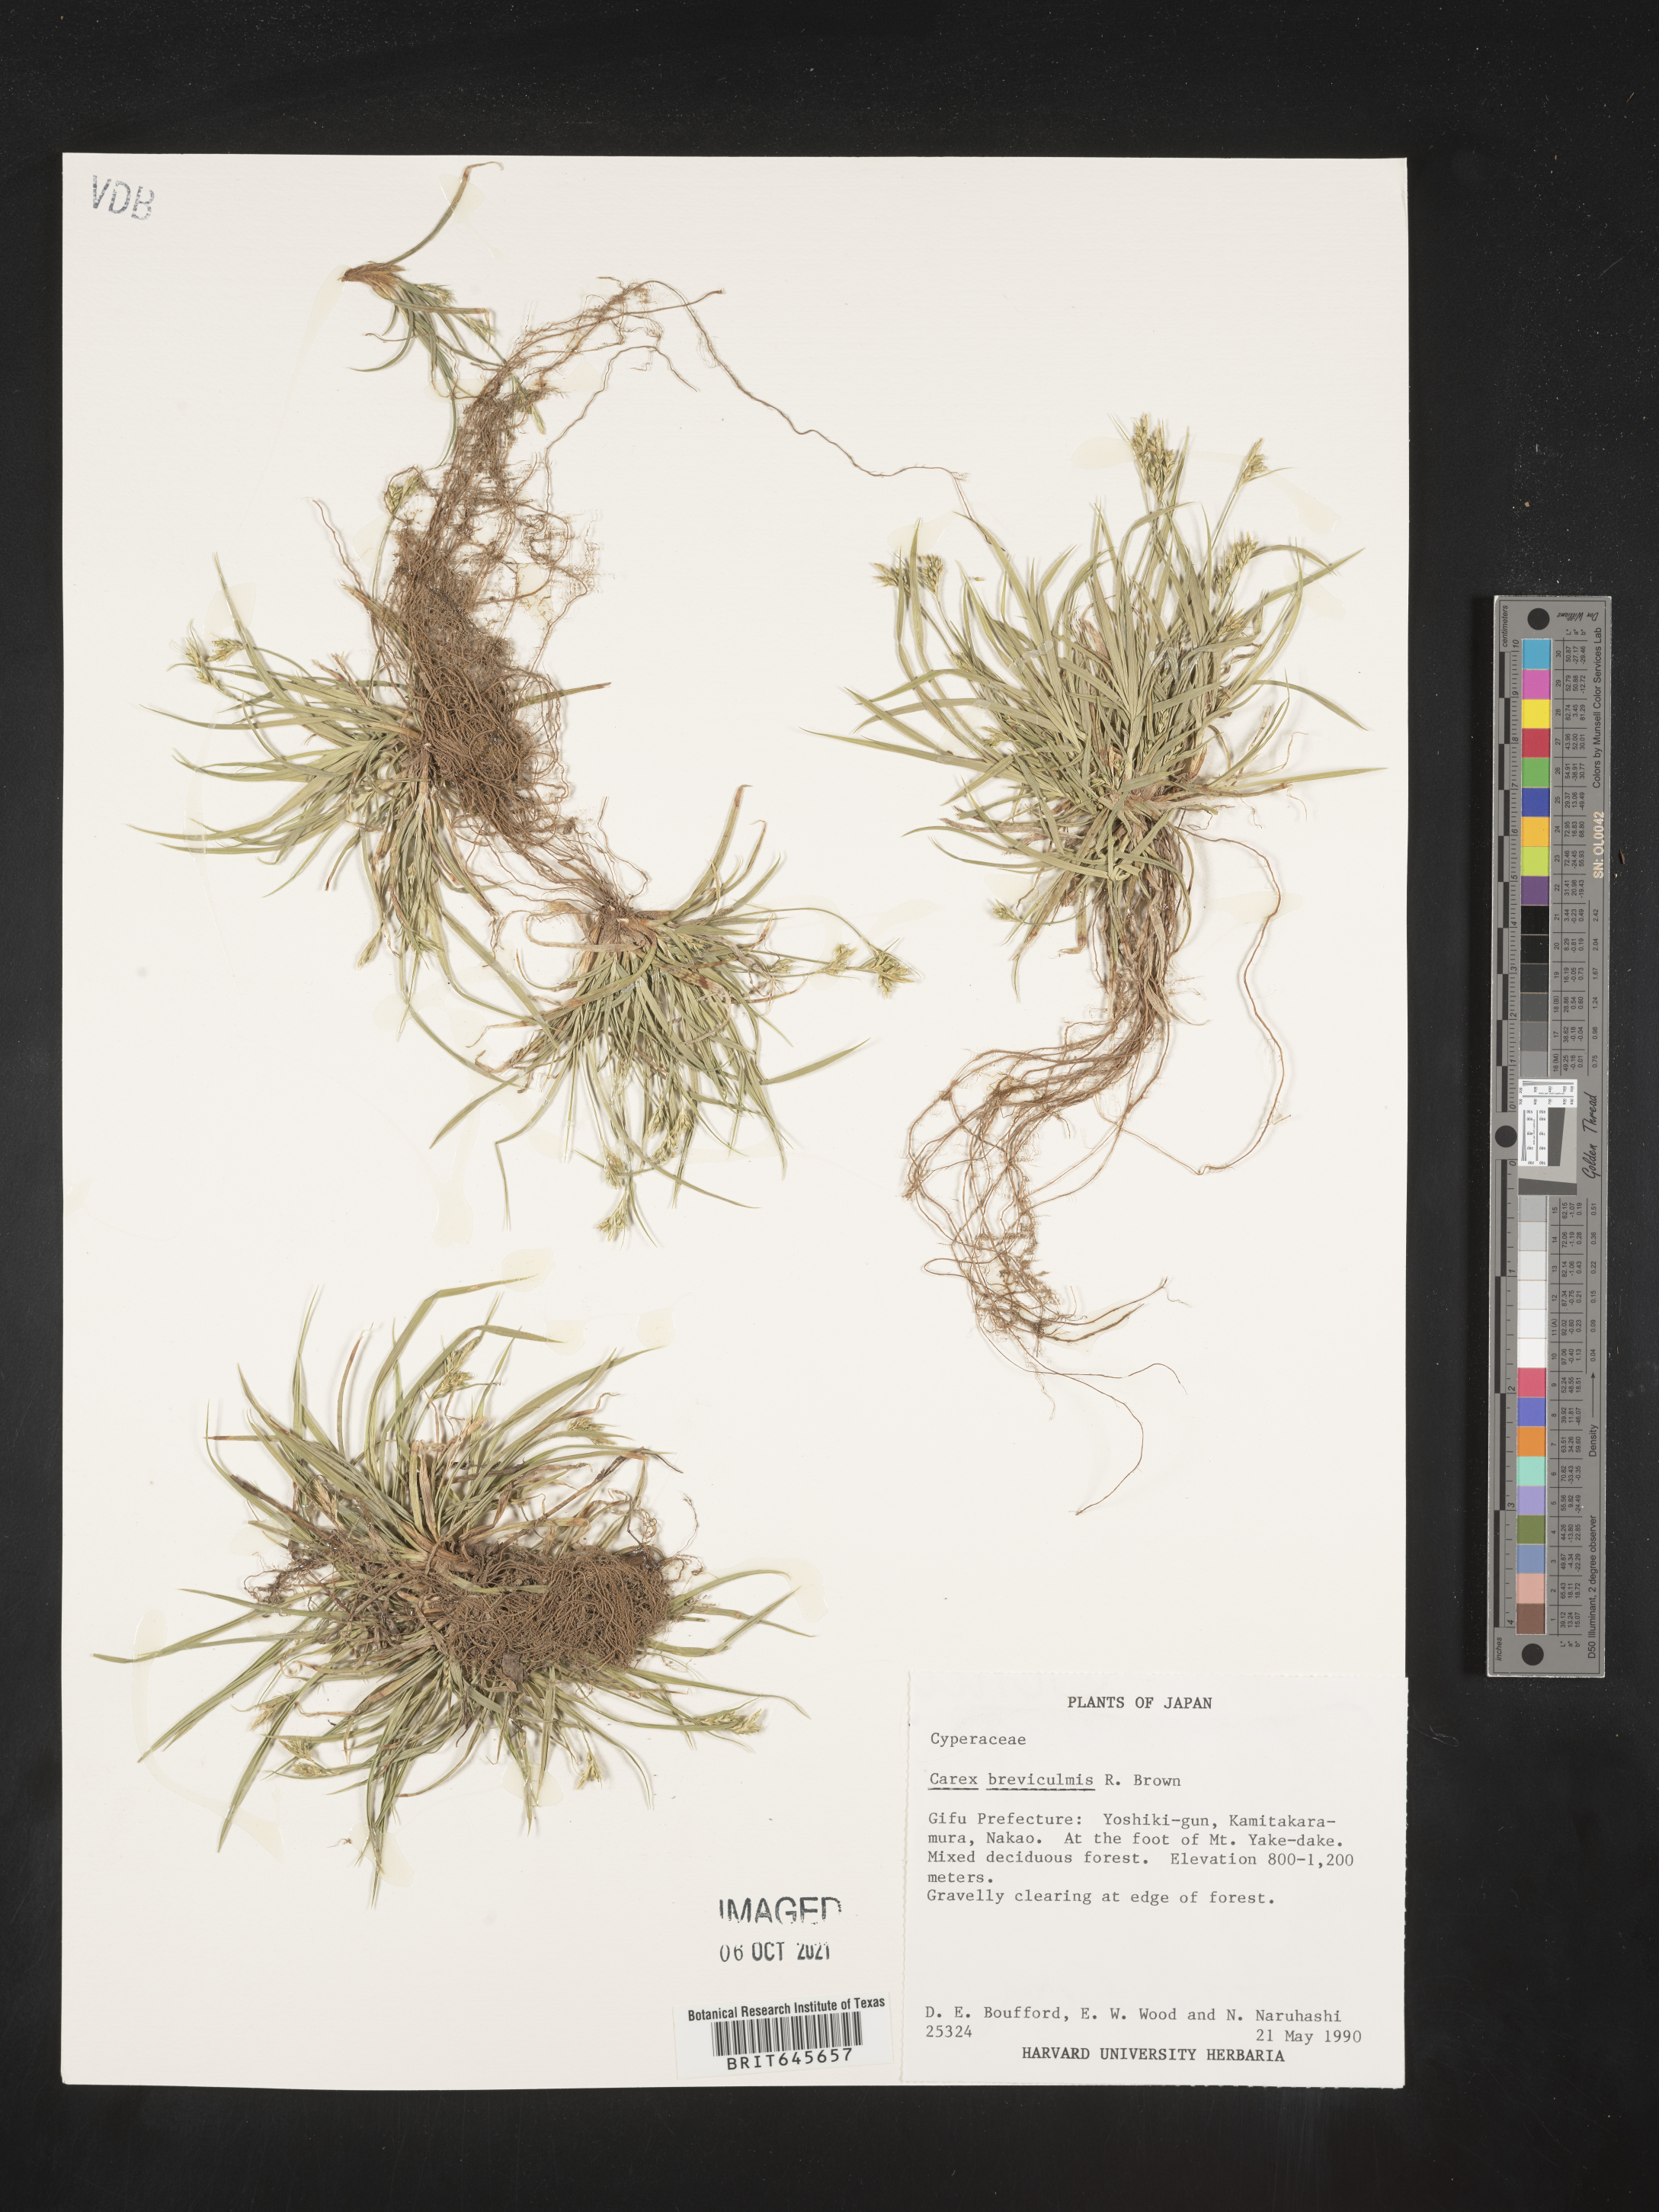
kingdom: Plantae
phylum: Tracheophyta
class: Liliopsida
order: Poales
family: Cyperaceae
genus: Carex
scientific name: Carex breviculmis
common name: Asian shortstem sedge
